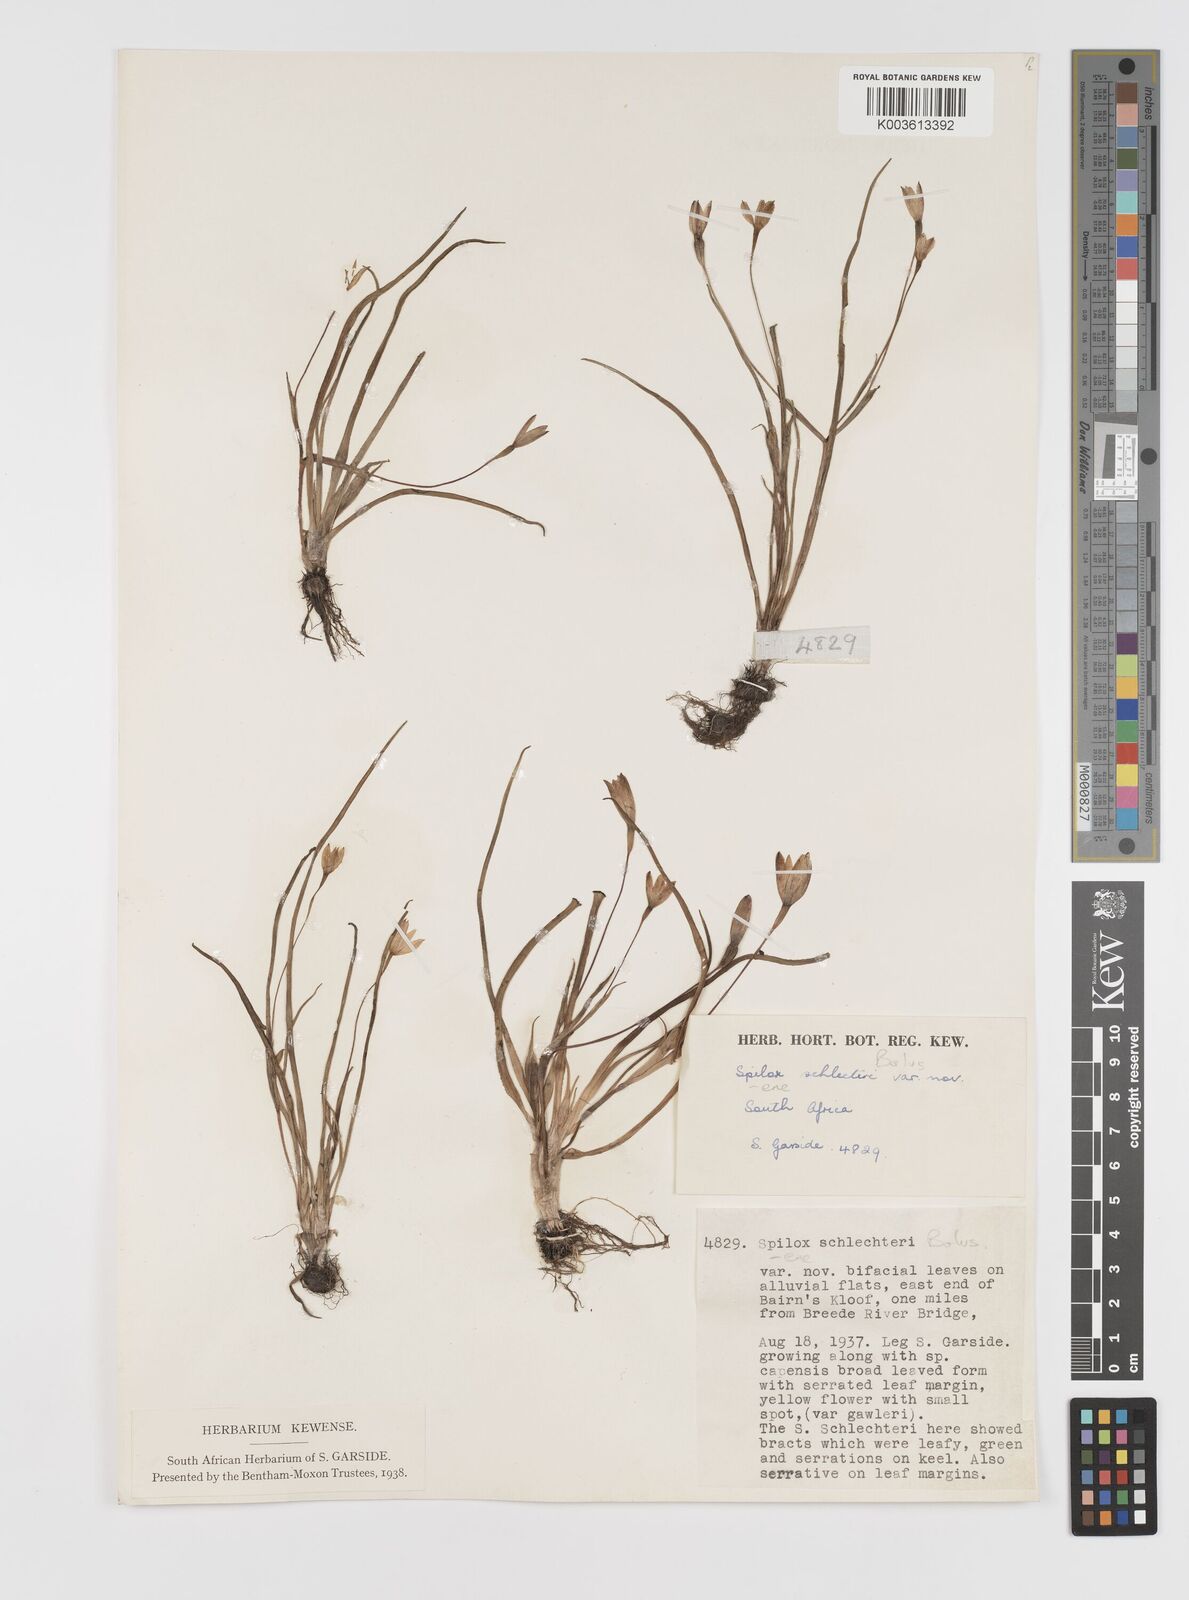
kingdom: Plantae
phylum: Tracheophyta
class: Liliopsida
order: Asparagales
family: Hypoxidaceae
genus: Pauridia
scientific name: Pauridia affinis
